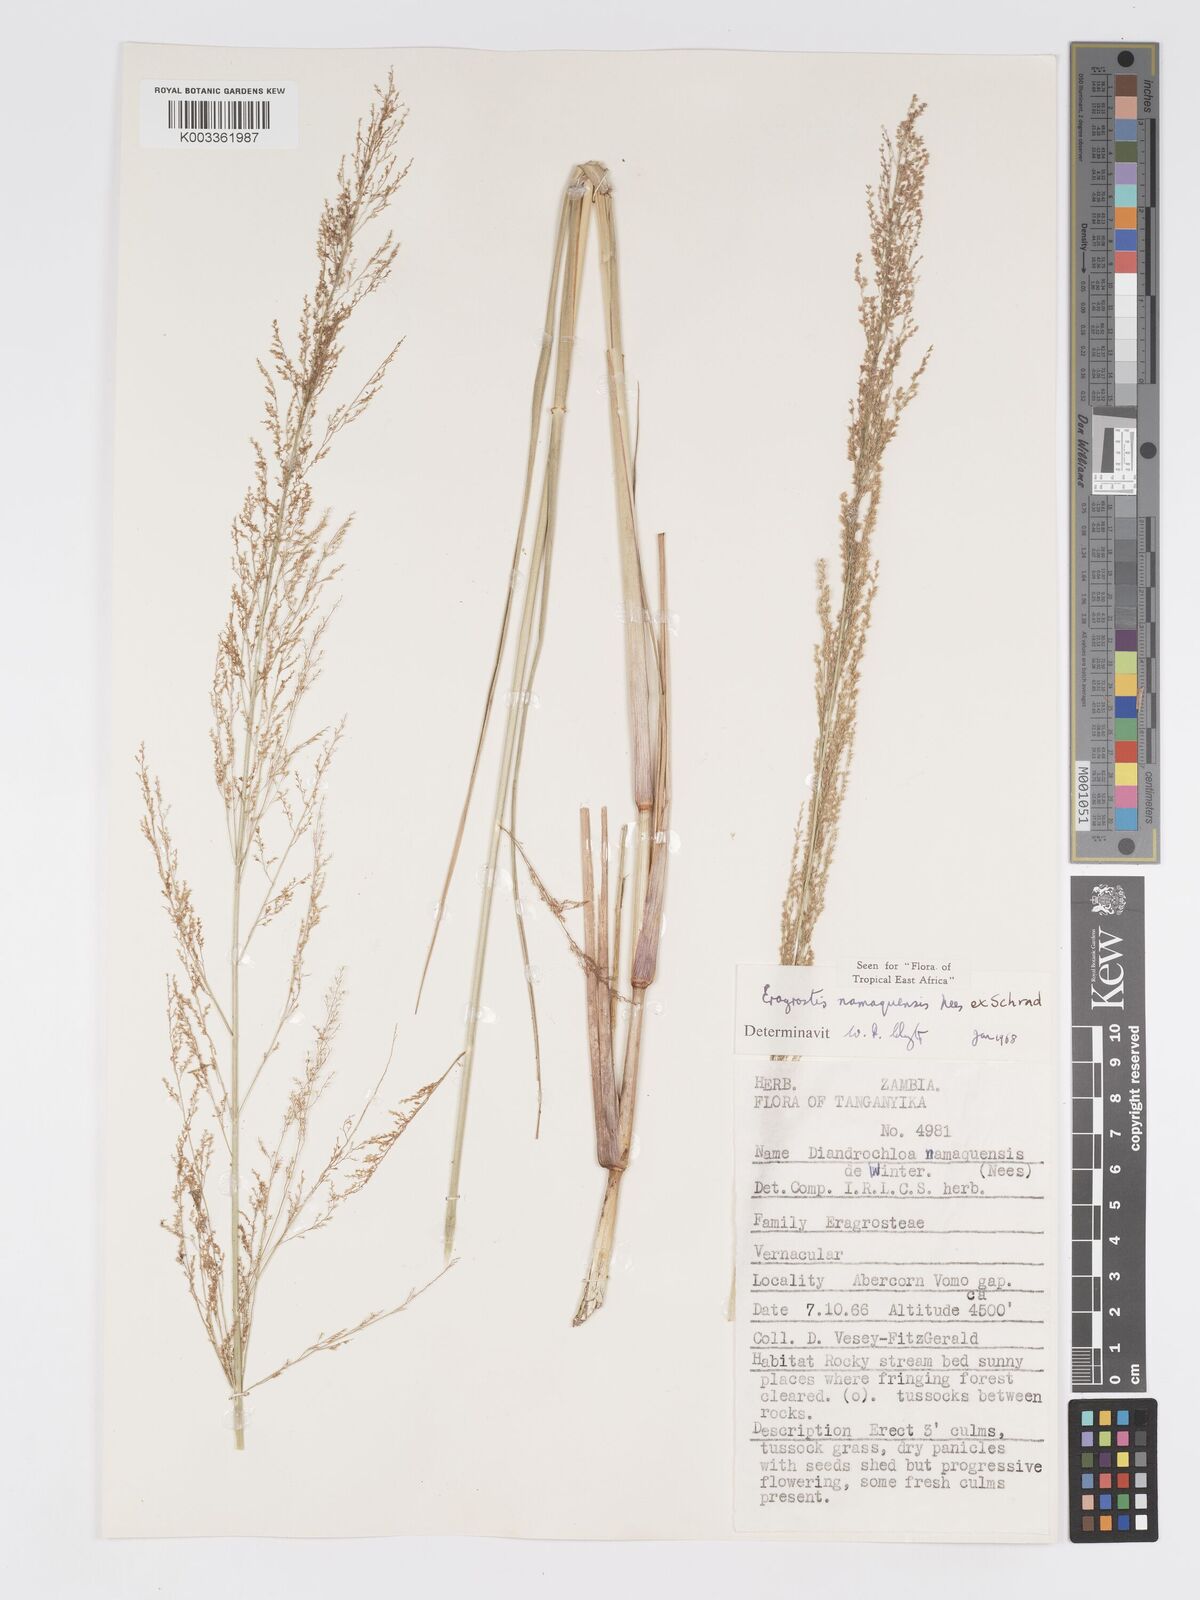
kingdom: Plantae
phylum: Tracheophyta
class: Liliopsida
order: Poales
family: Poaceae
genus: Eragrostis
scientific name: Eragrostis japonica
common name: Pond lovegrass
